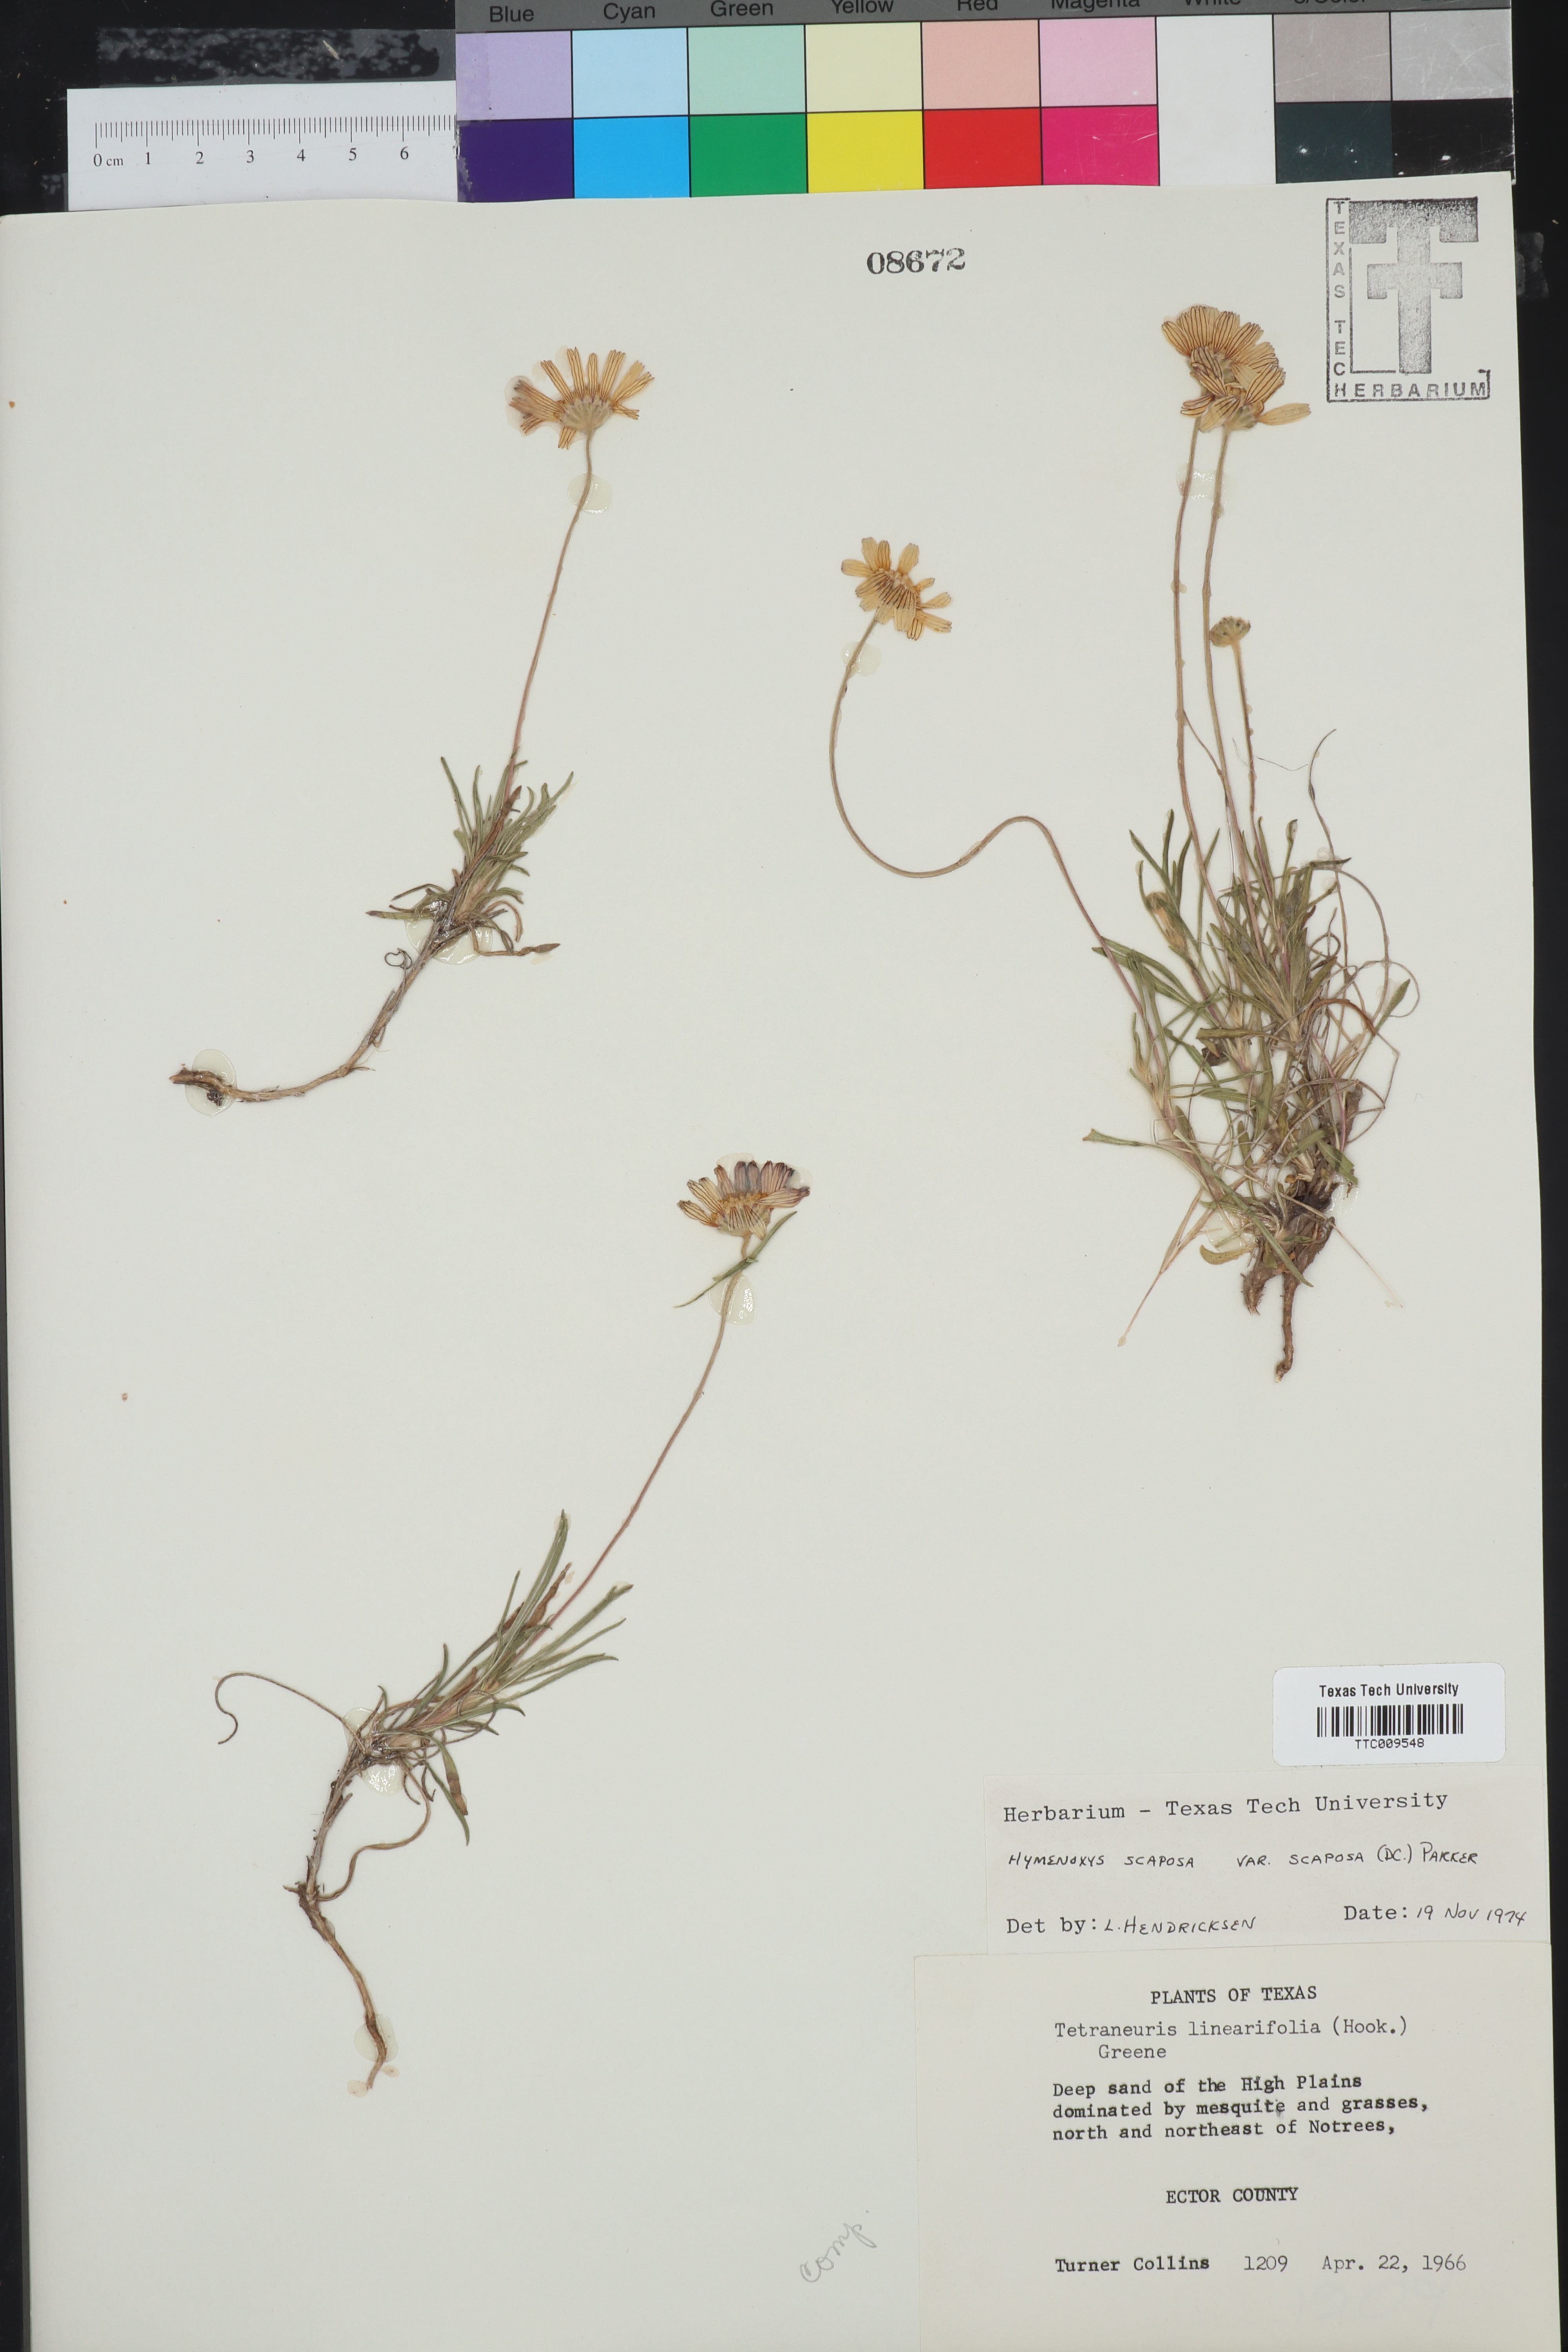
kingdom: Plantae
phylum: Tracheophyta
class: Magnoliopsida
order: Asterales
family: Asteraceae
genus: Tetraneuris
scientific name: Tetraneuris scaposa
